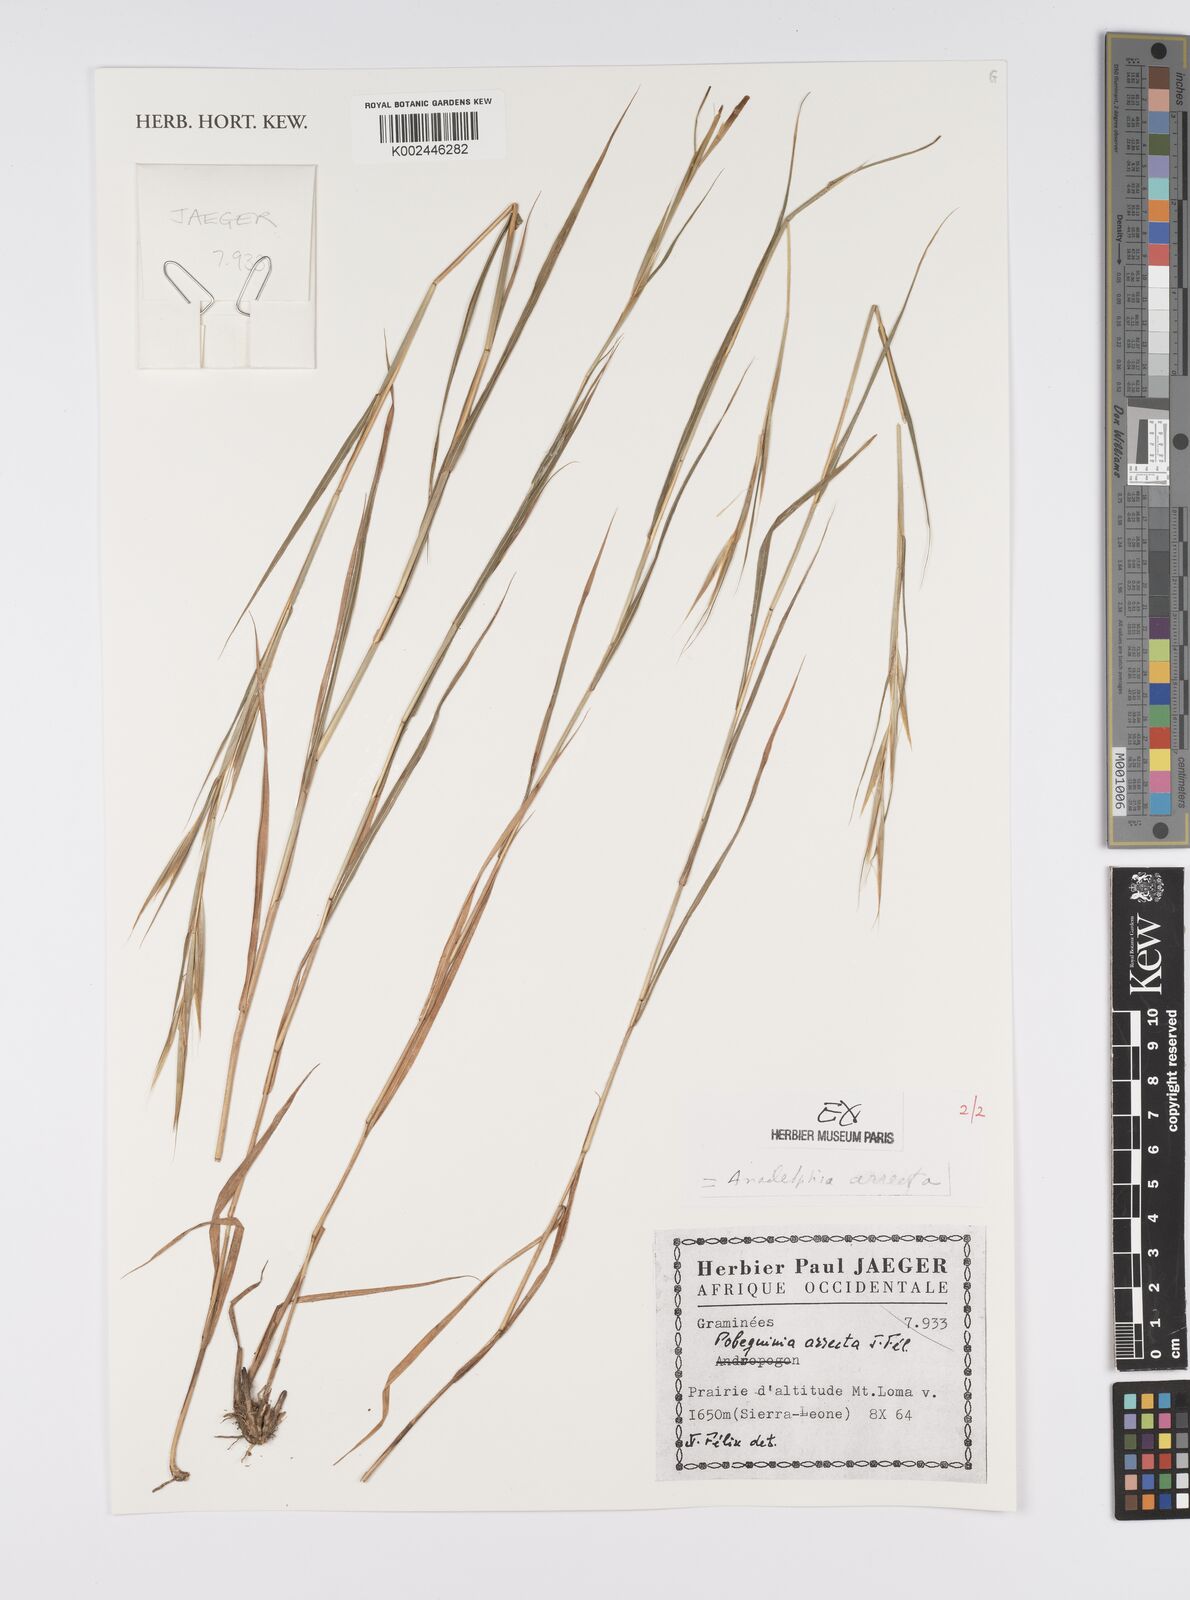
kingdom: Plantae
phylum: Tracheophyta
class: Liliopsida
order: Poales
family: Poaceae
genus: Anadelphia
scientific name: Anadelphia afzeliana
